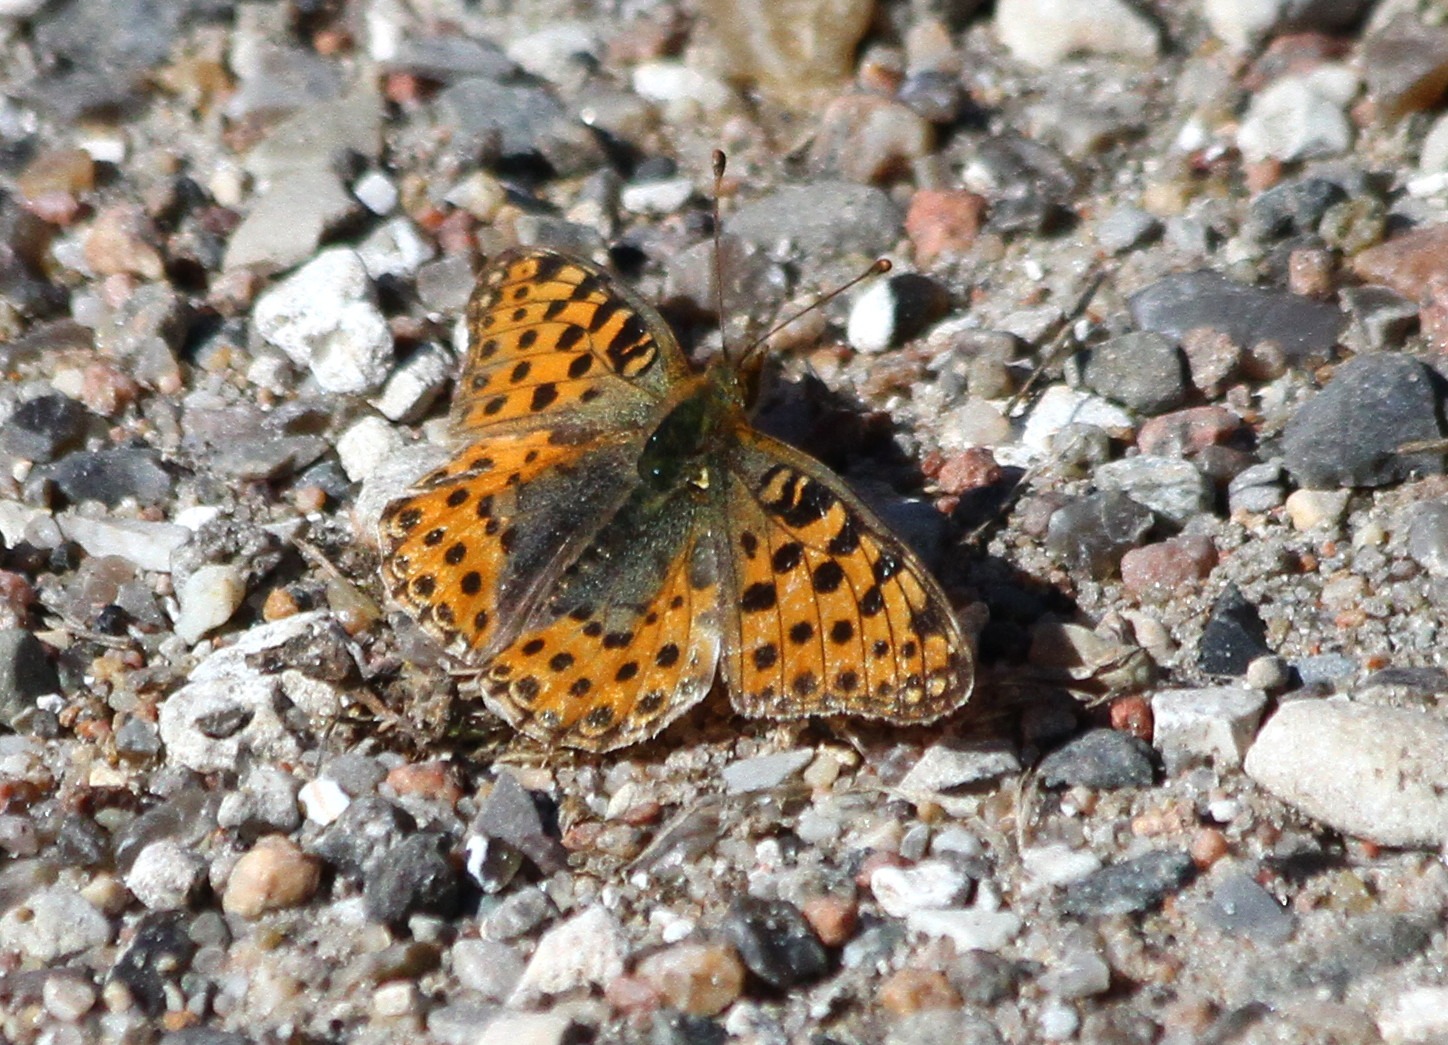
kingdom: Animalia
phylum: Arthropoda
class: Insecta
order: Lepidoptera
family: Nymphalidae
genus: Issoria
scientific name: Issoria lathonia
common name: Storplettet perlemorsommerfugl
